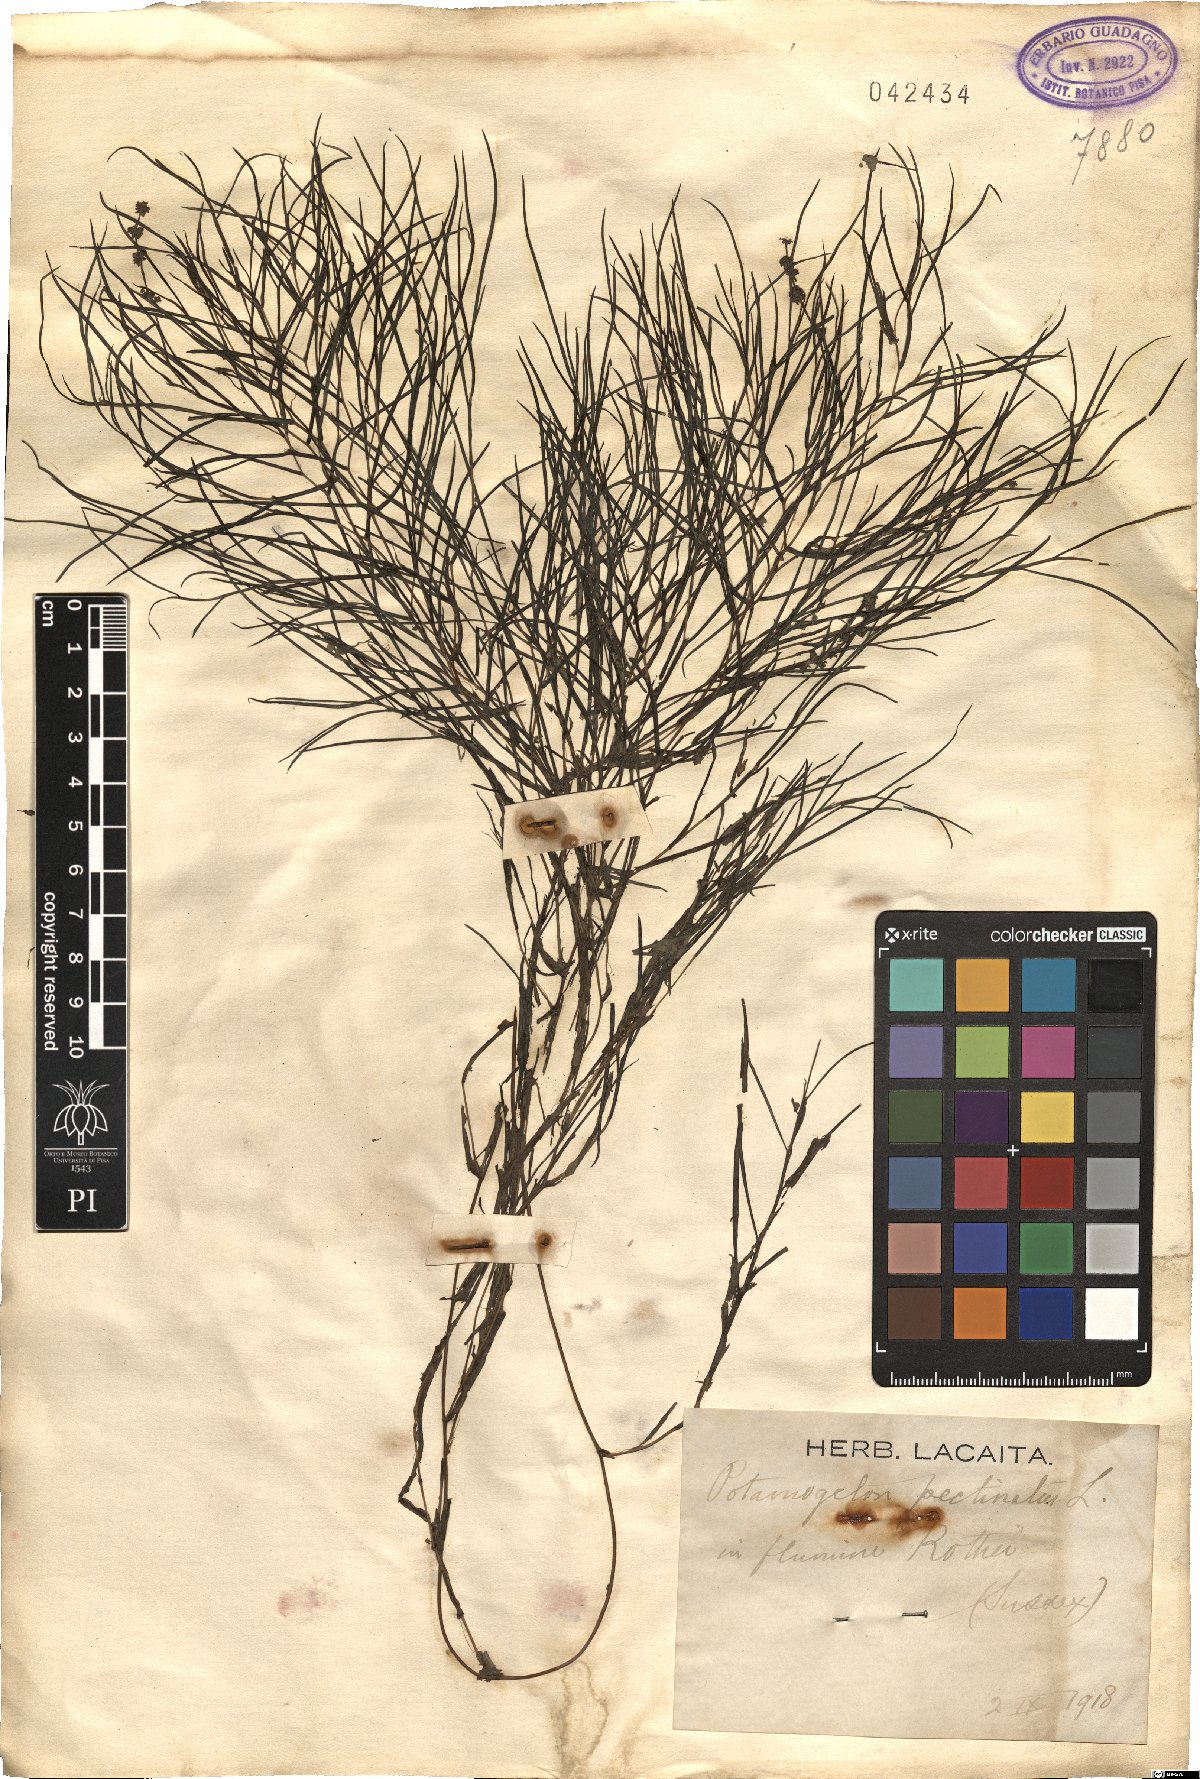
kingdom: Plantae
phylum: Tracheophyta
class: Liliopsida
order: Alismatales
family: Potamogetonaceae
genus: Stuckenia
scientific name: Stuckenia pectinata
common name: Sago pondweed
